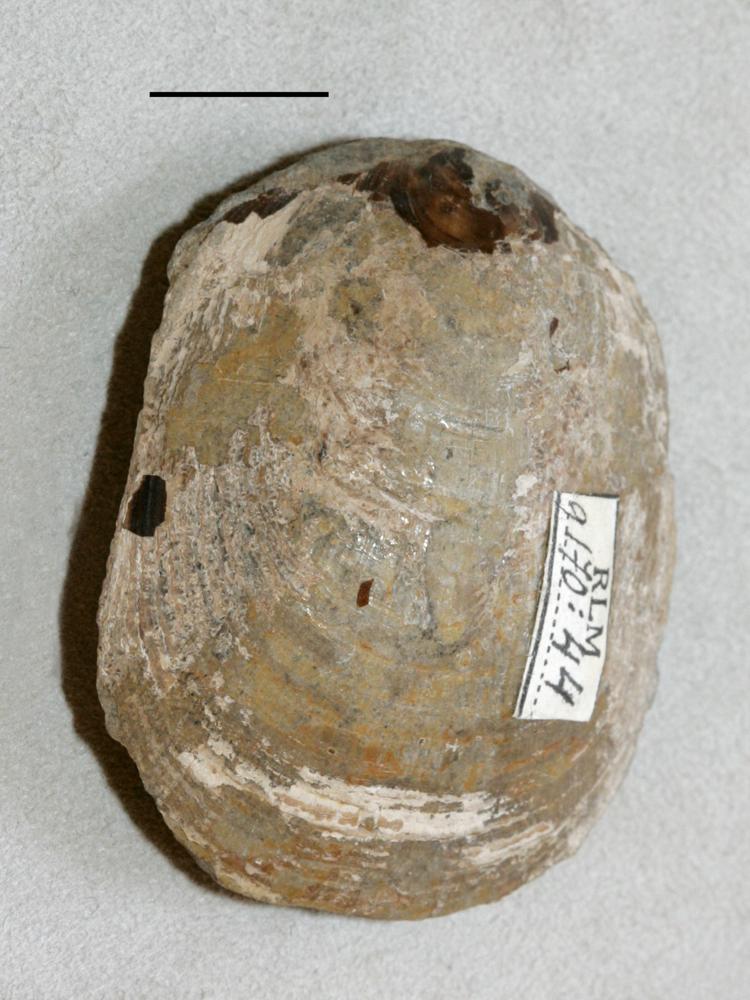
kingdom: Animalia
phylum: Brachiopoda
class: Lingulata
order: Lingulida
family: Pseudolingulidae
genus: Pseudolingula
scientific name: Pseudolingula Crania quadrata
